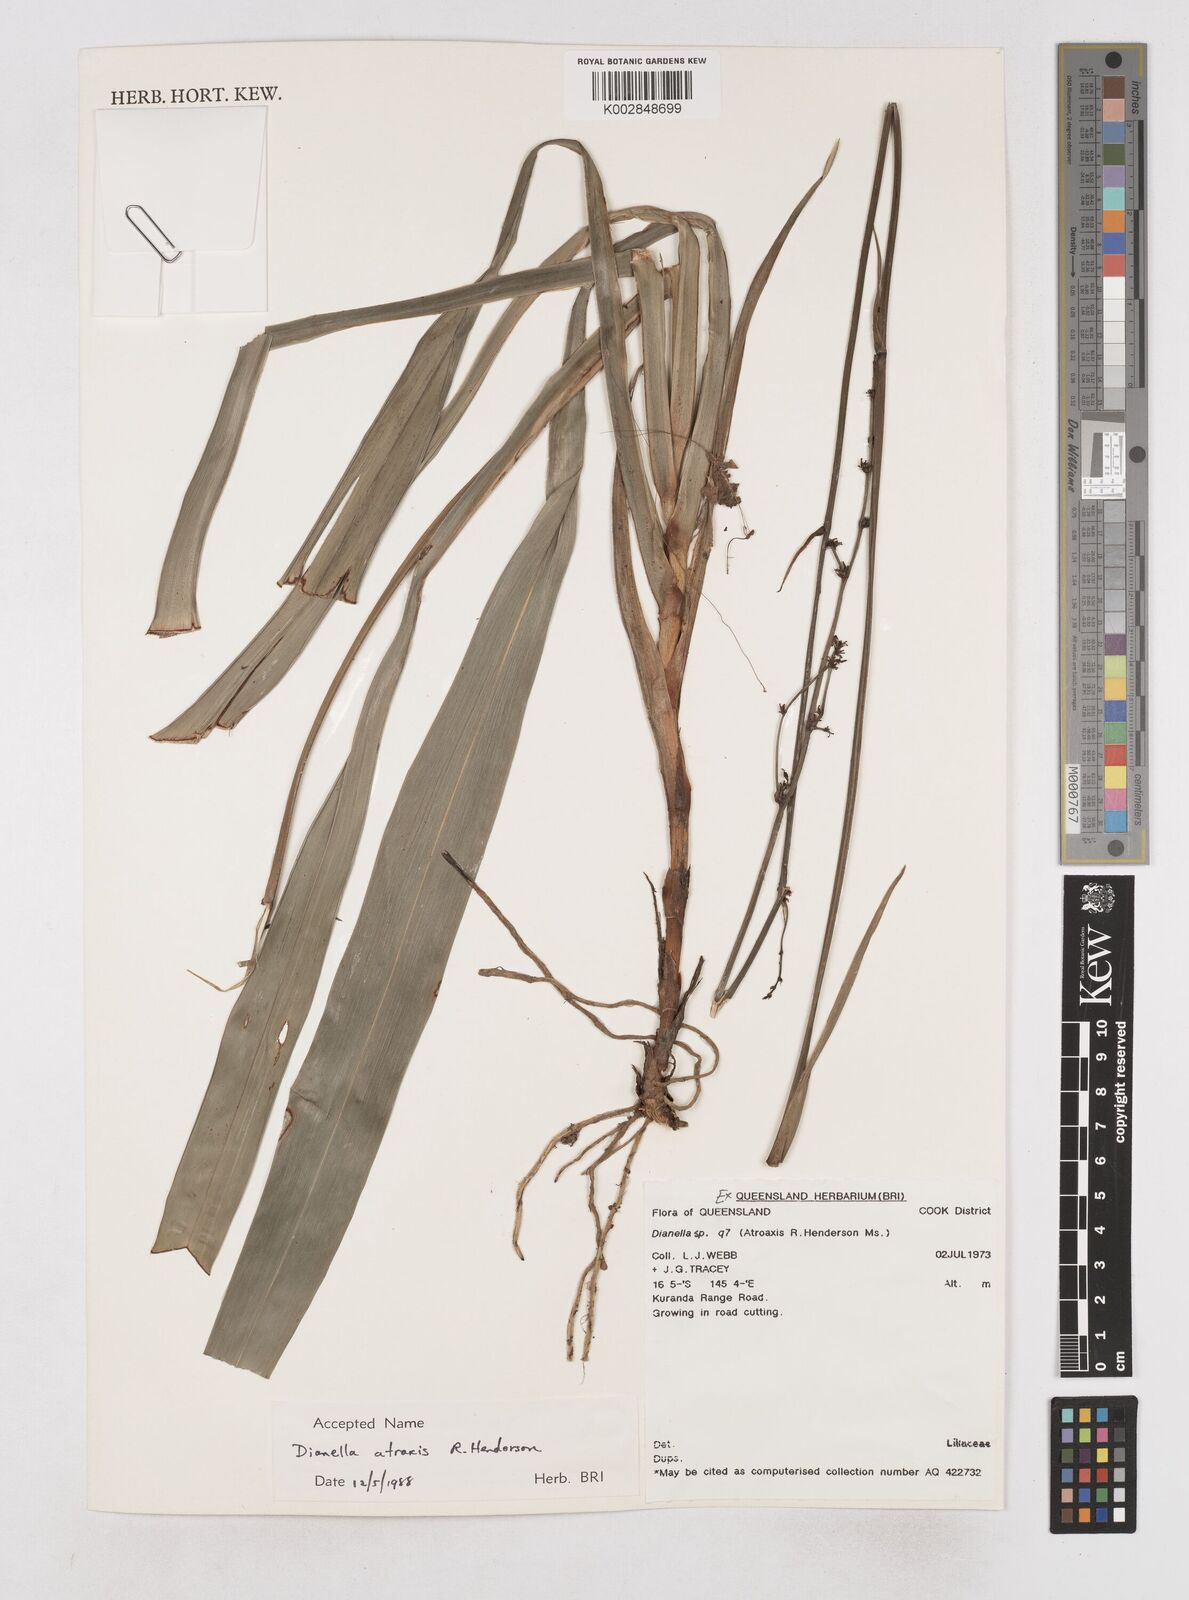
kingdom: Plantae
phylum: Tracheophyta
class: Liliopsida
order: Asparagales
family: Asphodelaceae
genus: Dianella
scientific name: Dianella atraxis
